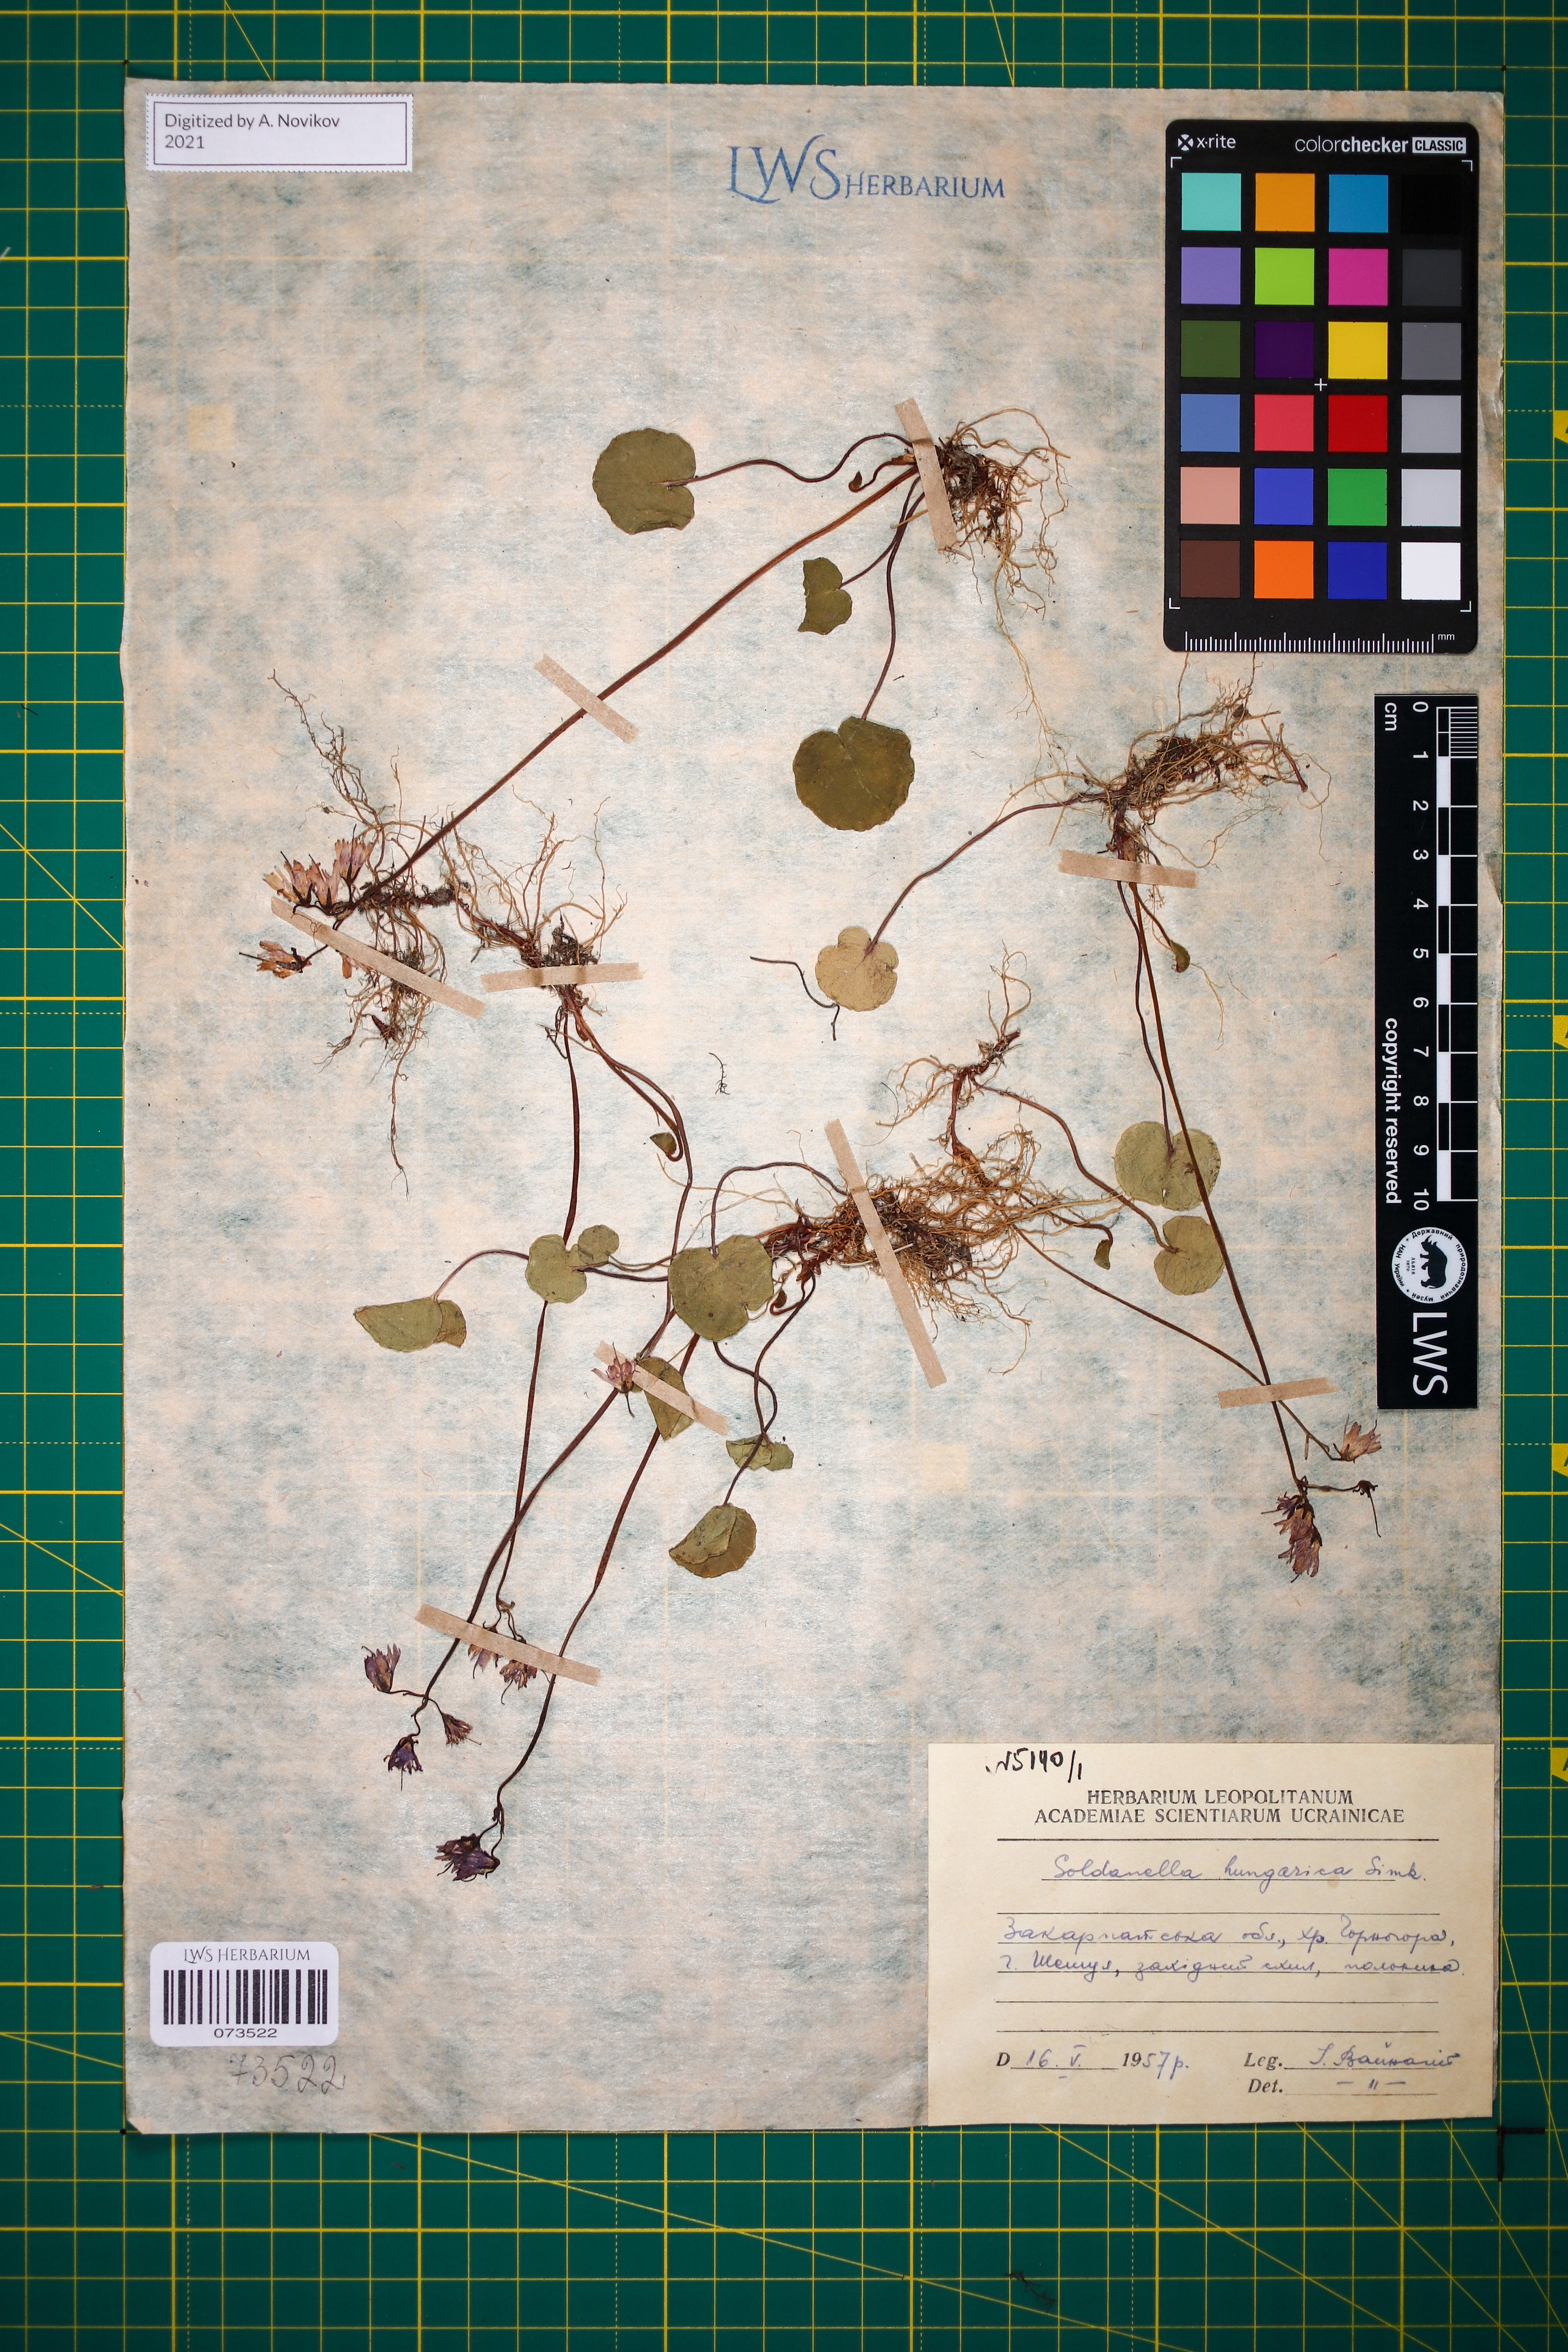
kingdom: Plantae
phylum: Tracheophyta
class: Magnoliopsida
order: Ericales
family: Primulaceae
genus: Soldanella
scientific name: Soldanella hungarica
